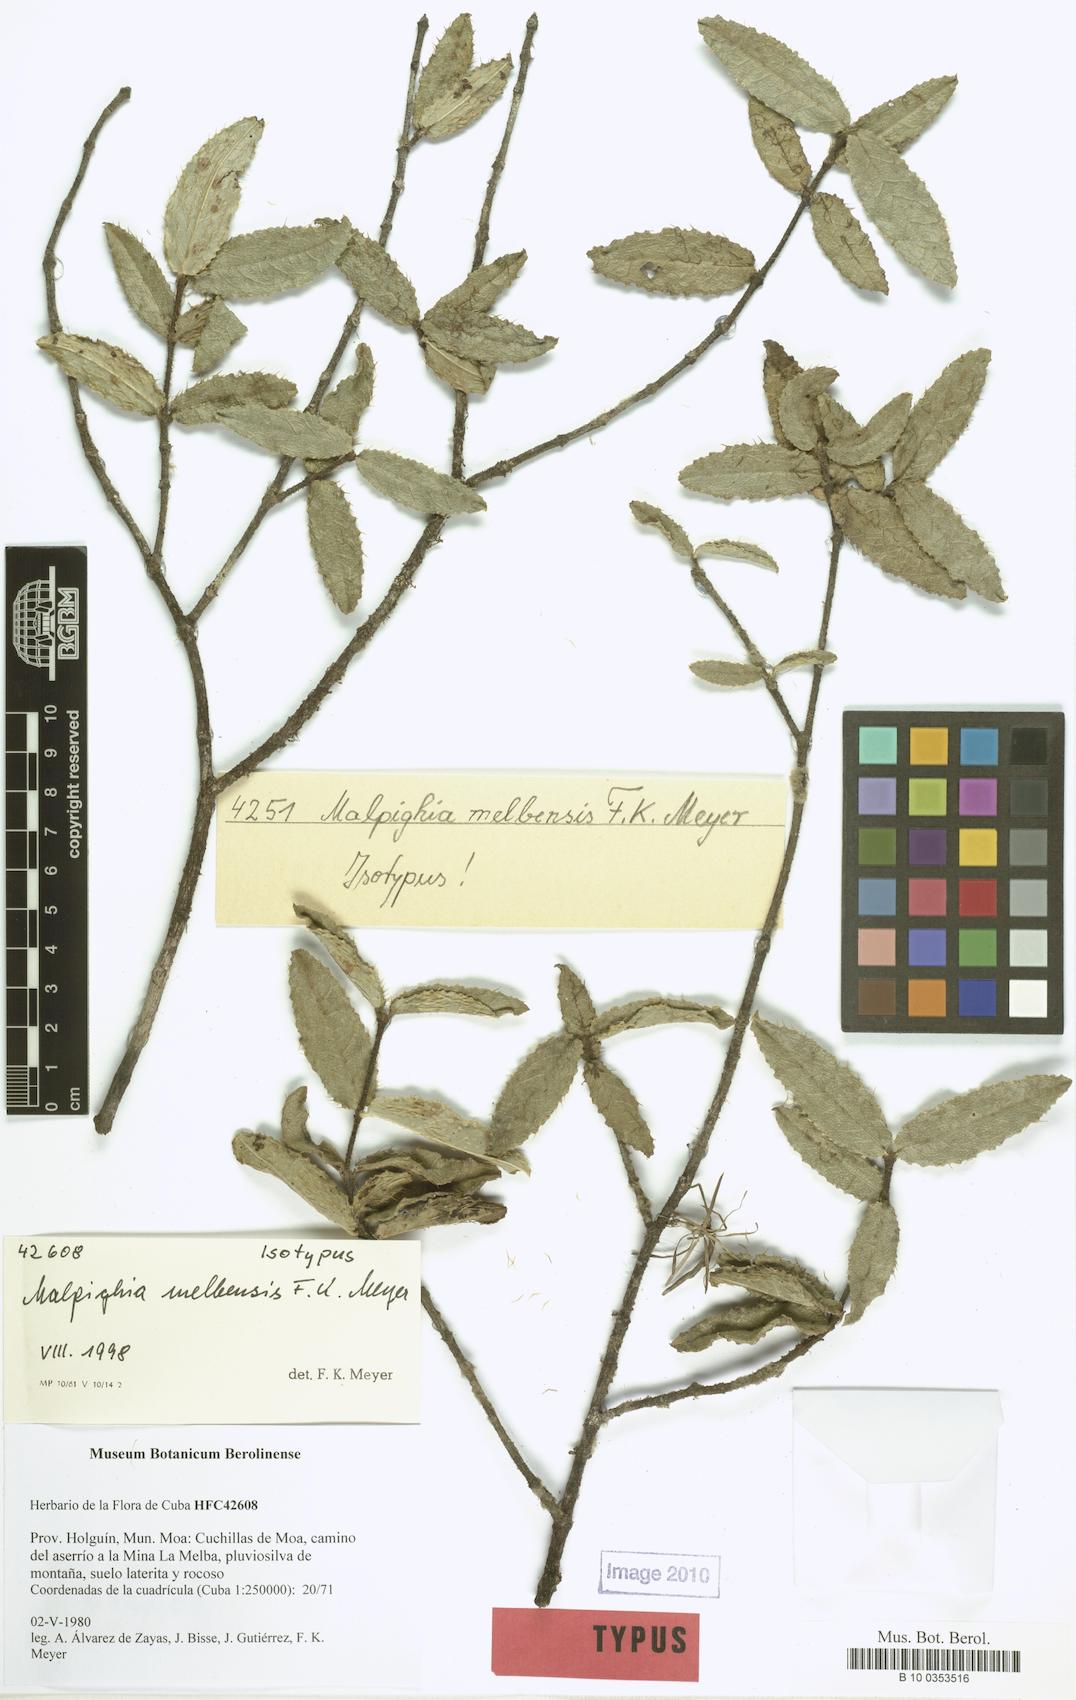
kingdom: Plantae
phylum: Tracheophyta
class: Magnoliopsida
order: Malpighiales
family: Malpighiaceae
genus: Malpighia
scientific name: Malpighia melbensis
